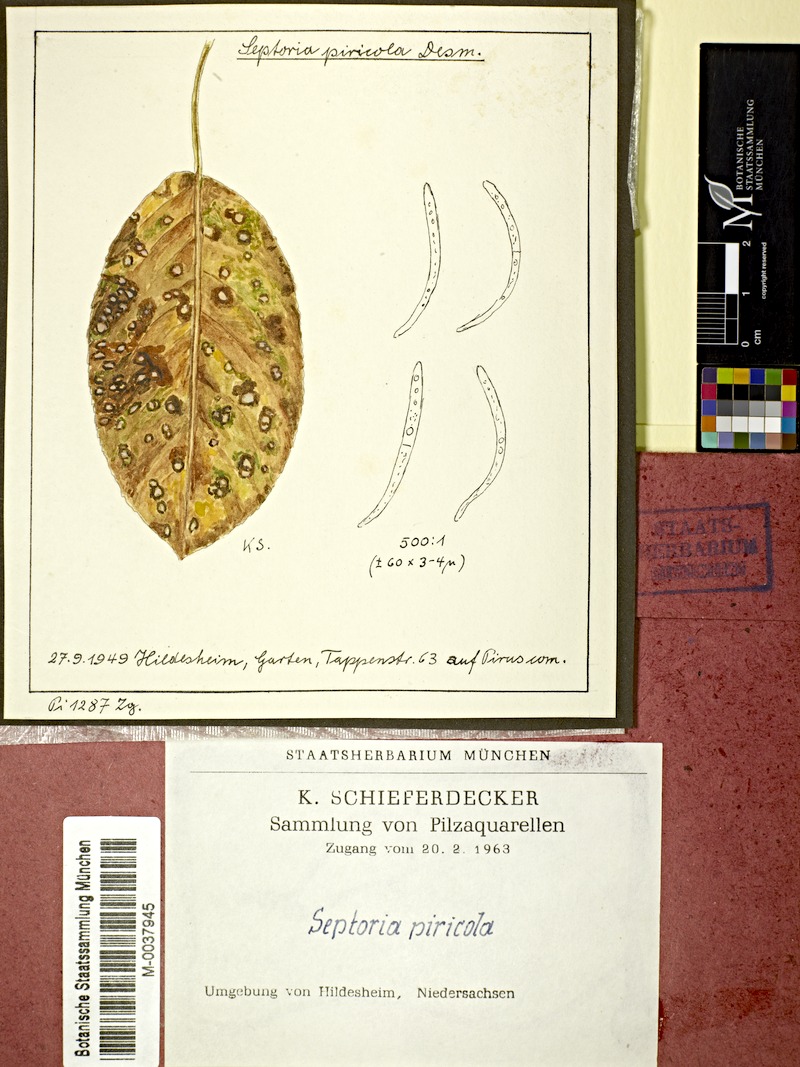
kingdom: Fungi
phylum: Ascomycota
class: Dothideomycetes
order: Mycosphaerellales
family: Mycosphaerellaceae
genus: Mycosphaerella
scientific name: Mycosphaerella pyri
